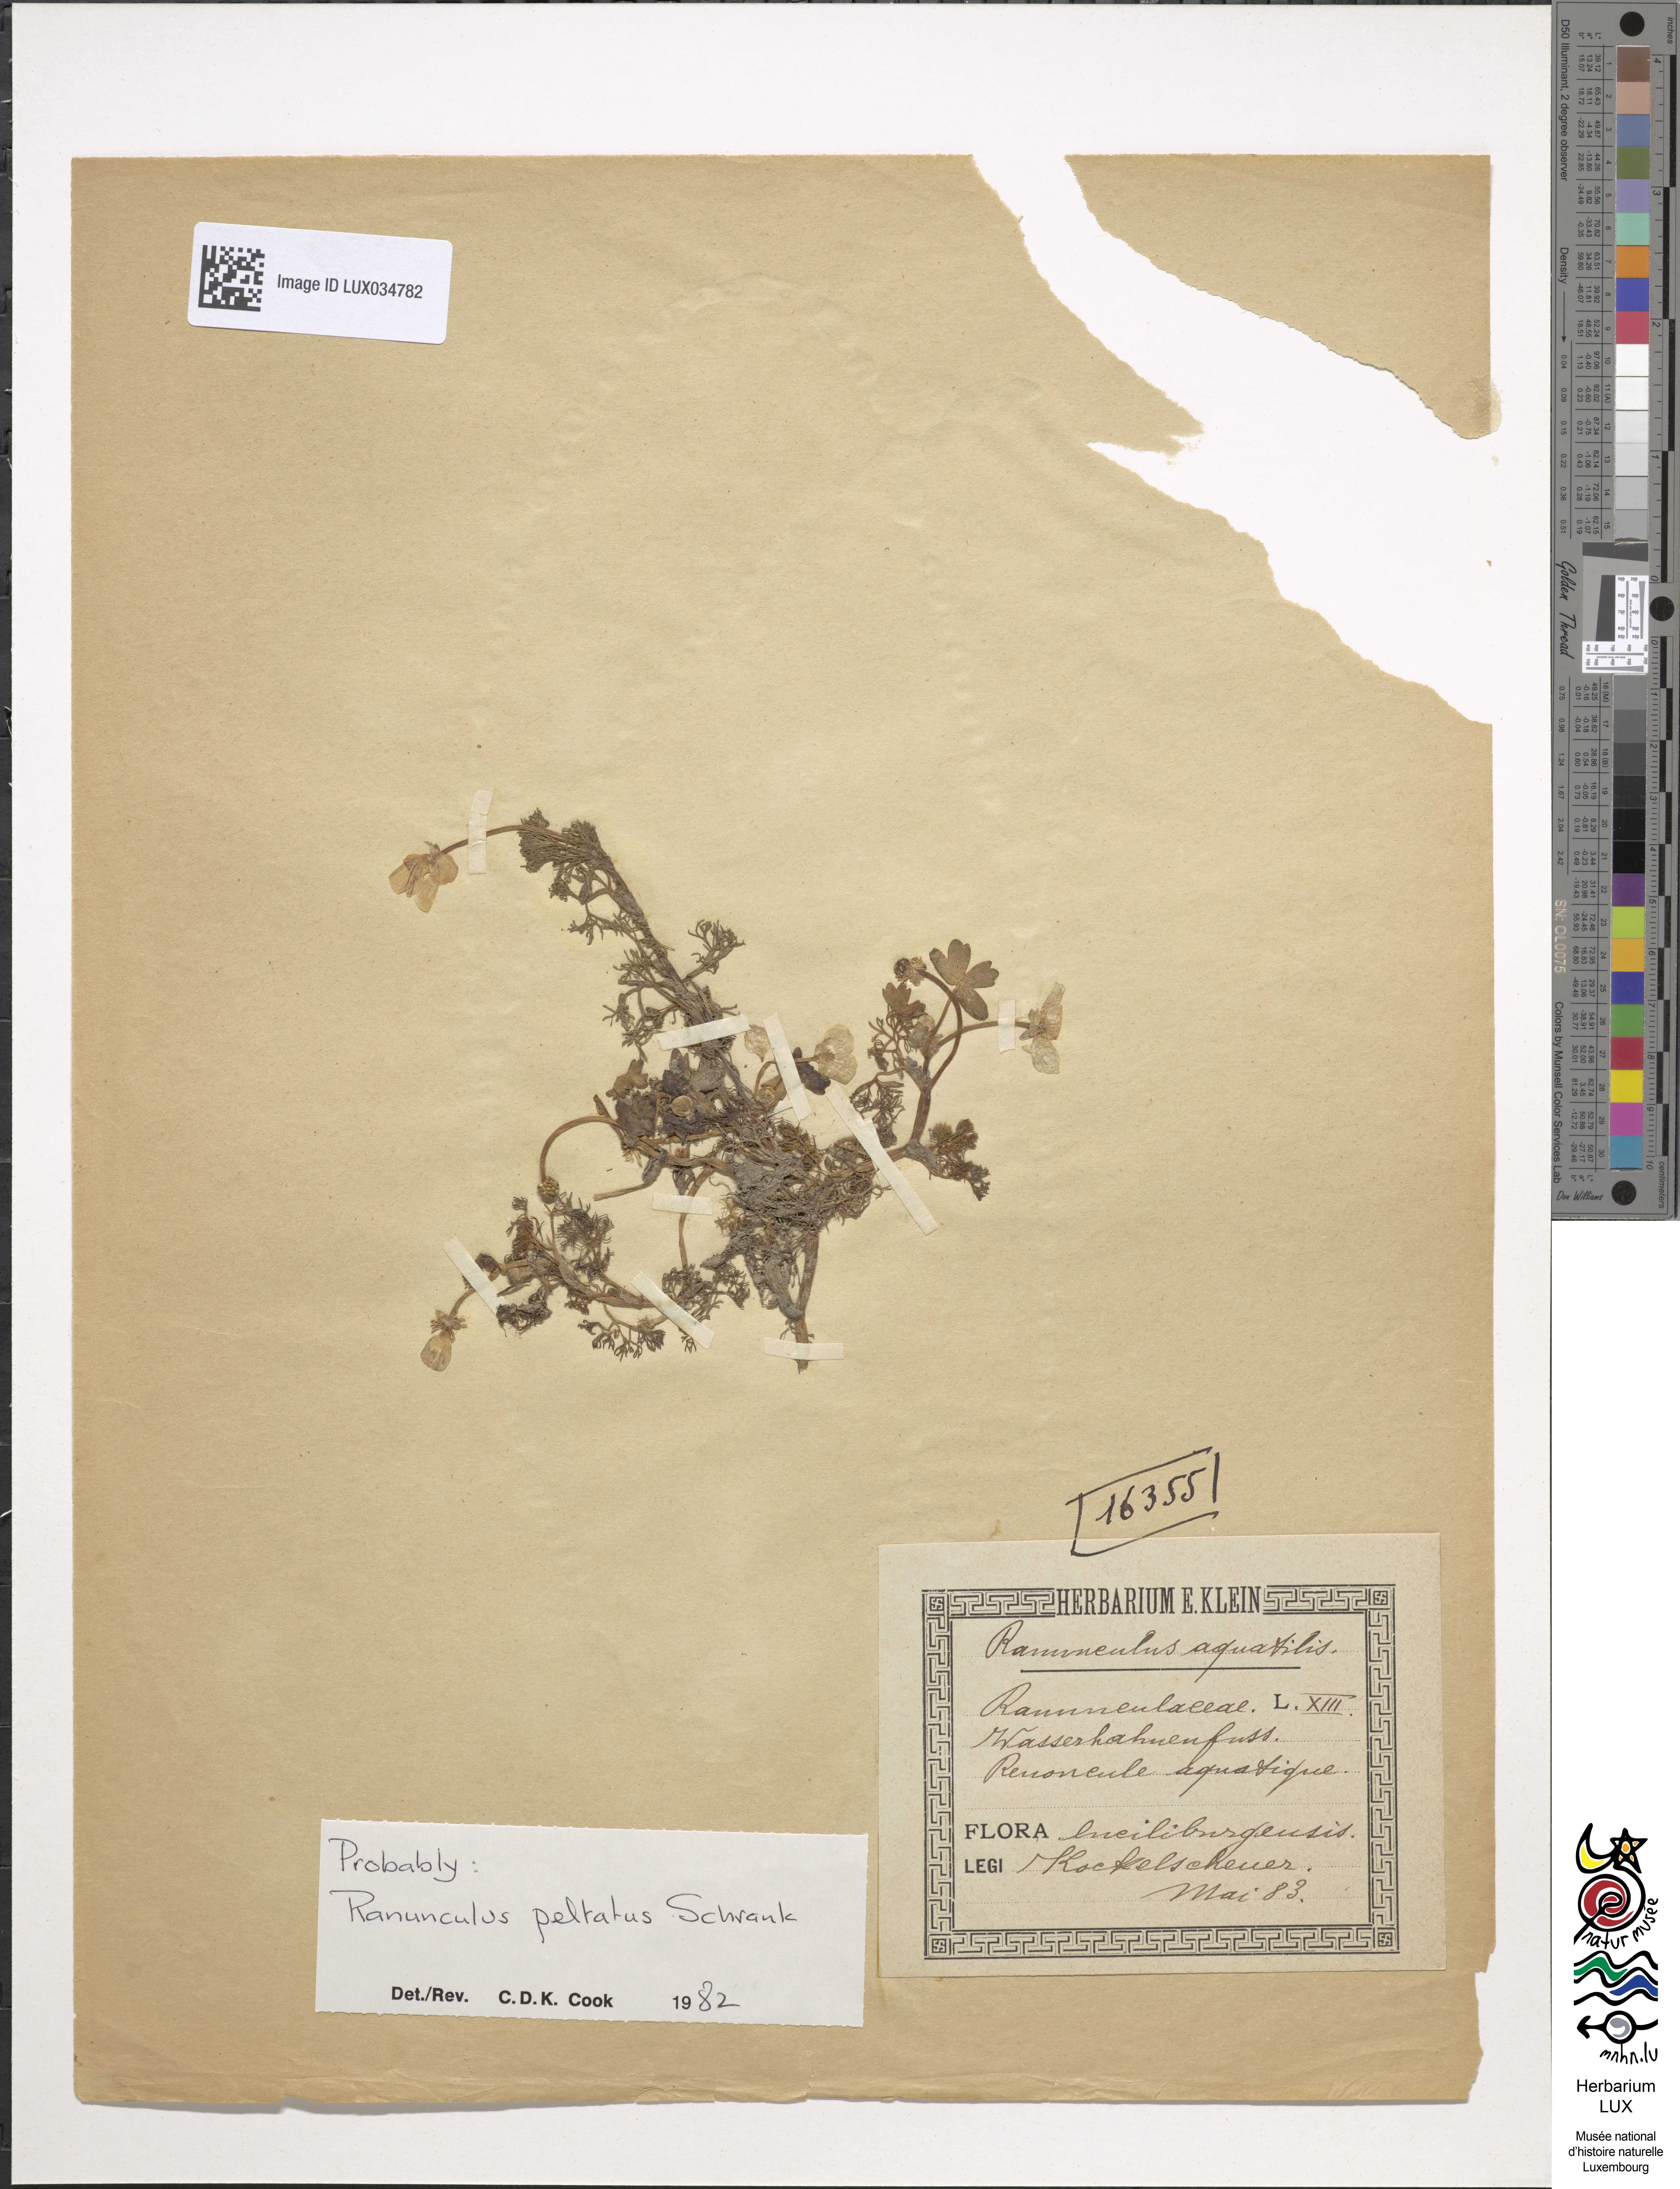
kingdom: Plantae
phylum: Tracheophyta
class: Magnoliopsida
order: Ranunculales
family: Ranunculaceae
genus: Ranunculus
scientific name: Ranunculus aquatilis
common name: Common water-crowfoot
